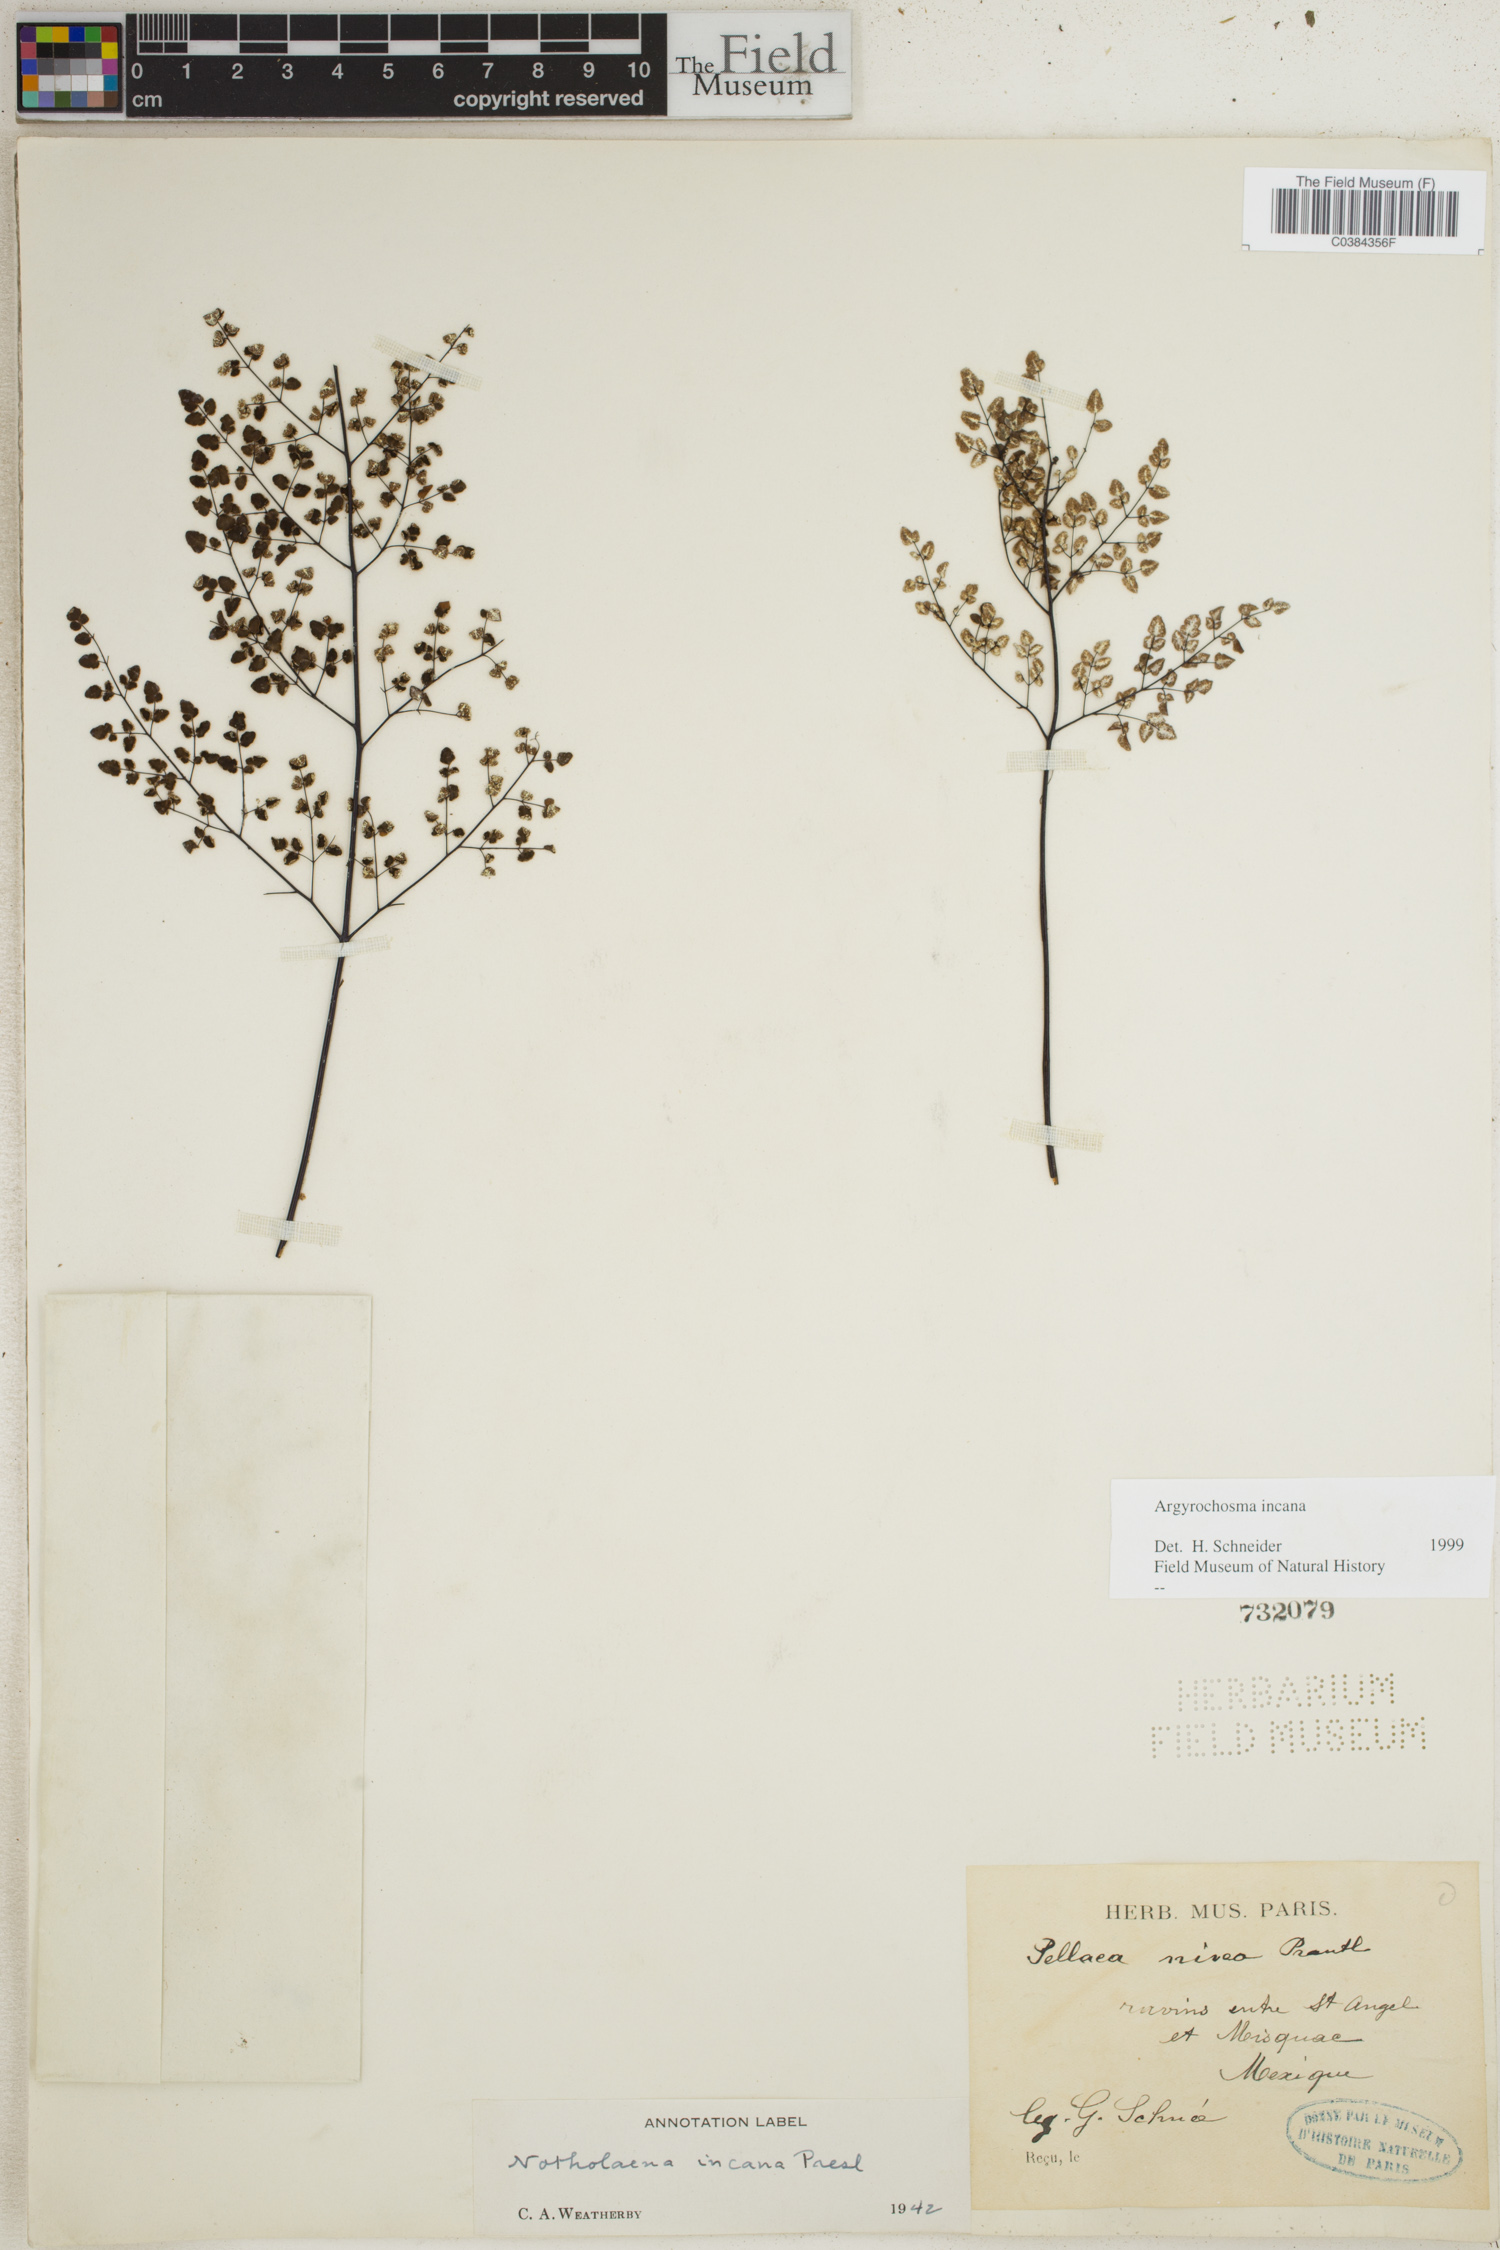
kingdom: Plantae
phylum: Tracheophyta
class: Polypodiopsida
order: Polypodiales
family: Pteridaceae
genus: Argyrochosma
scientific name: Argyrochosma incana
